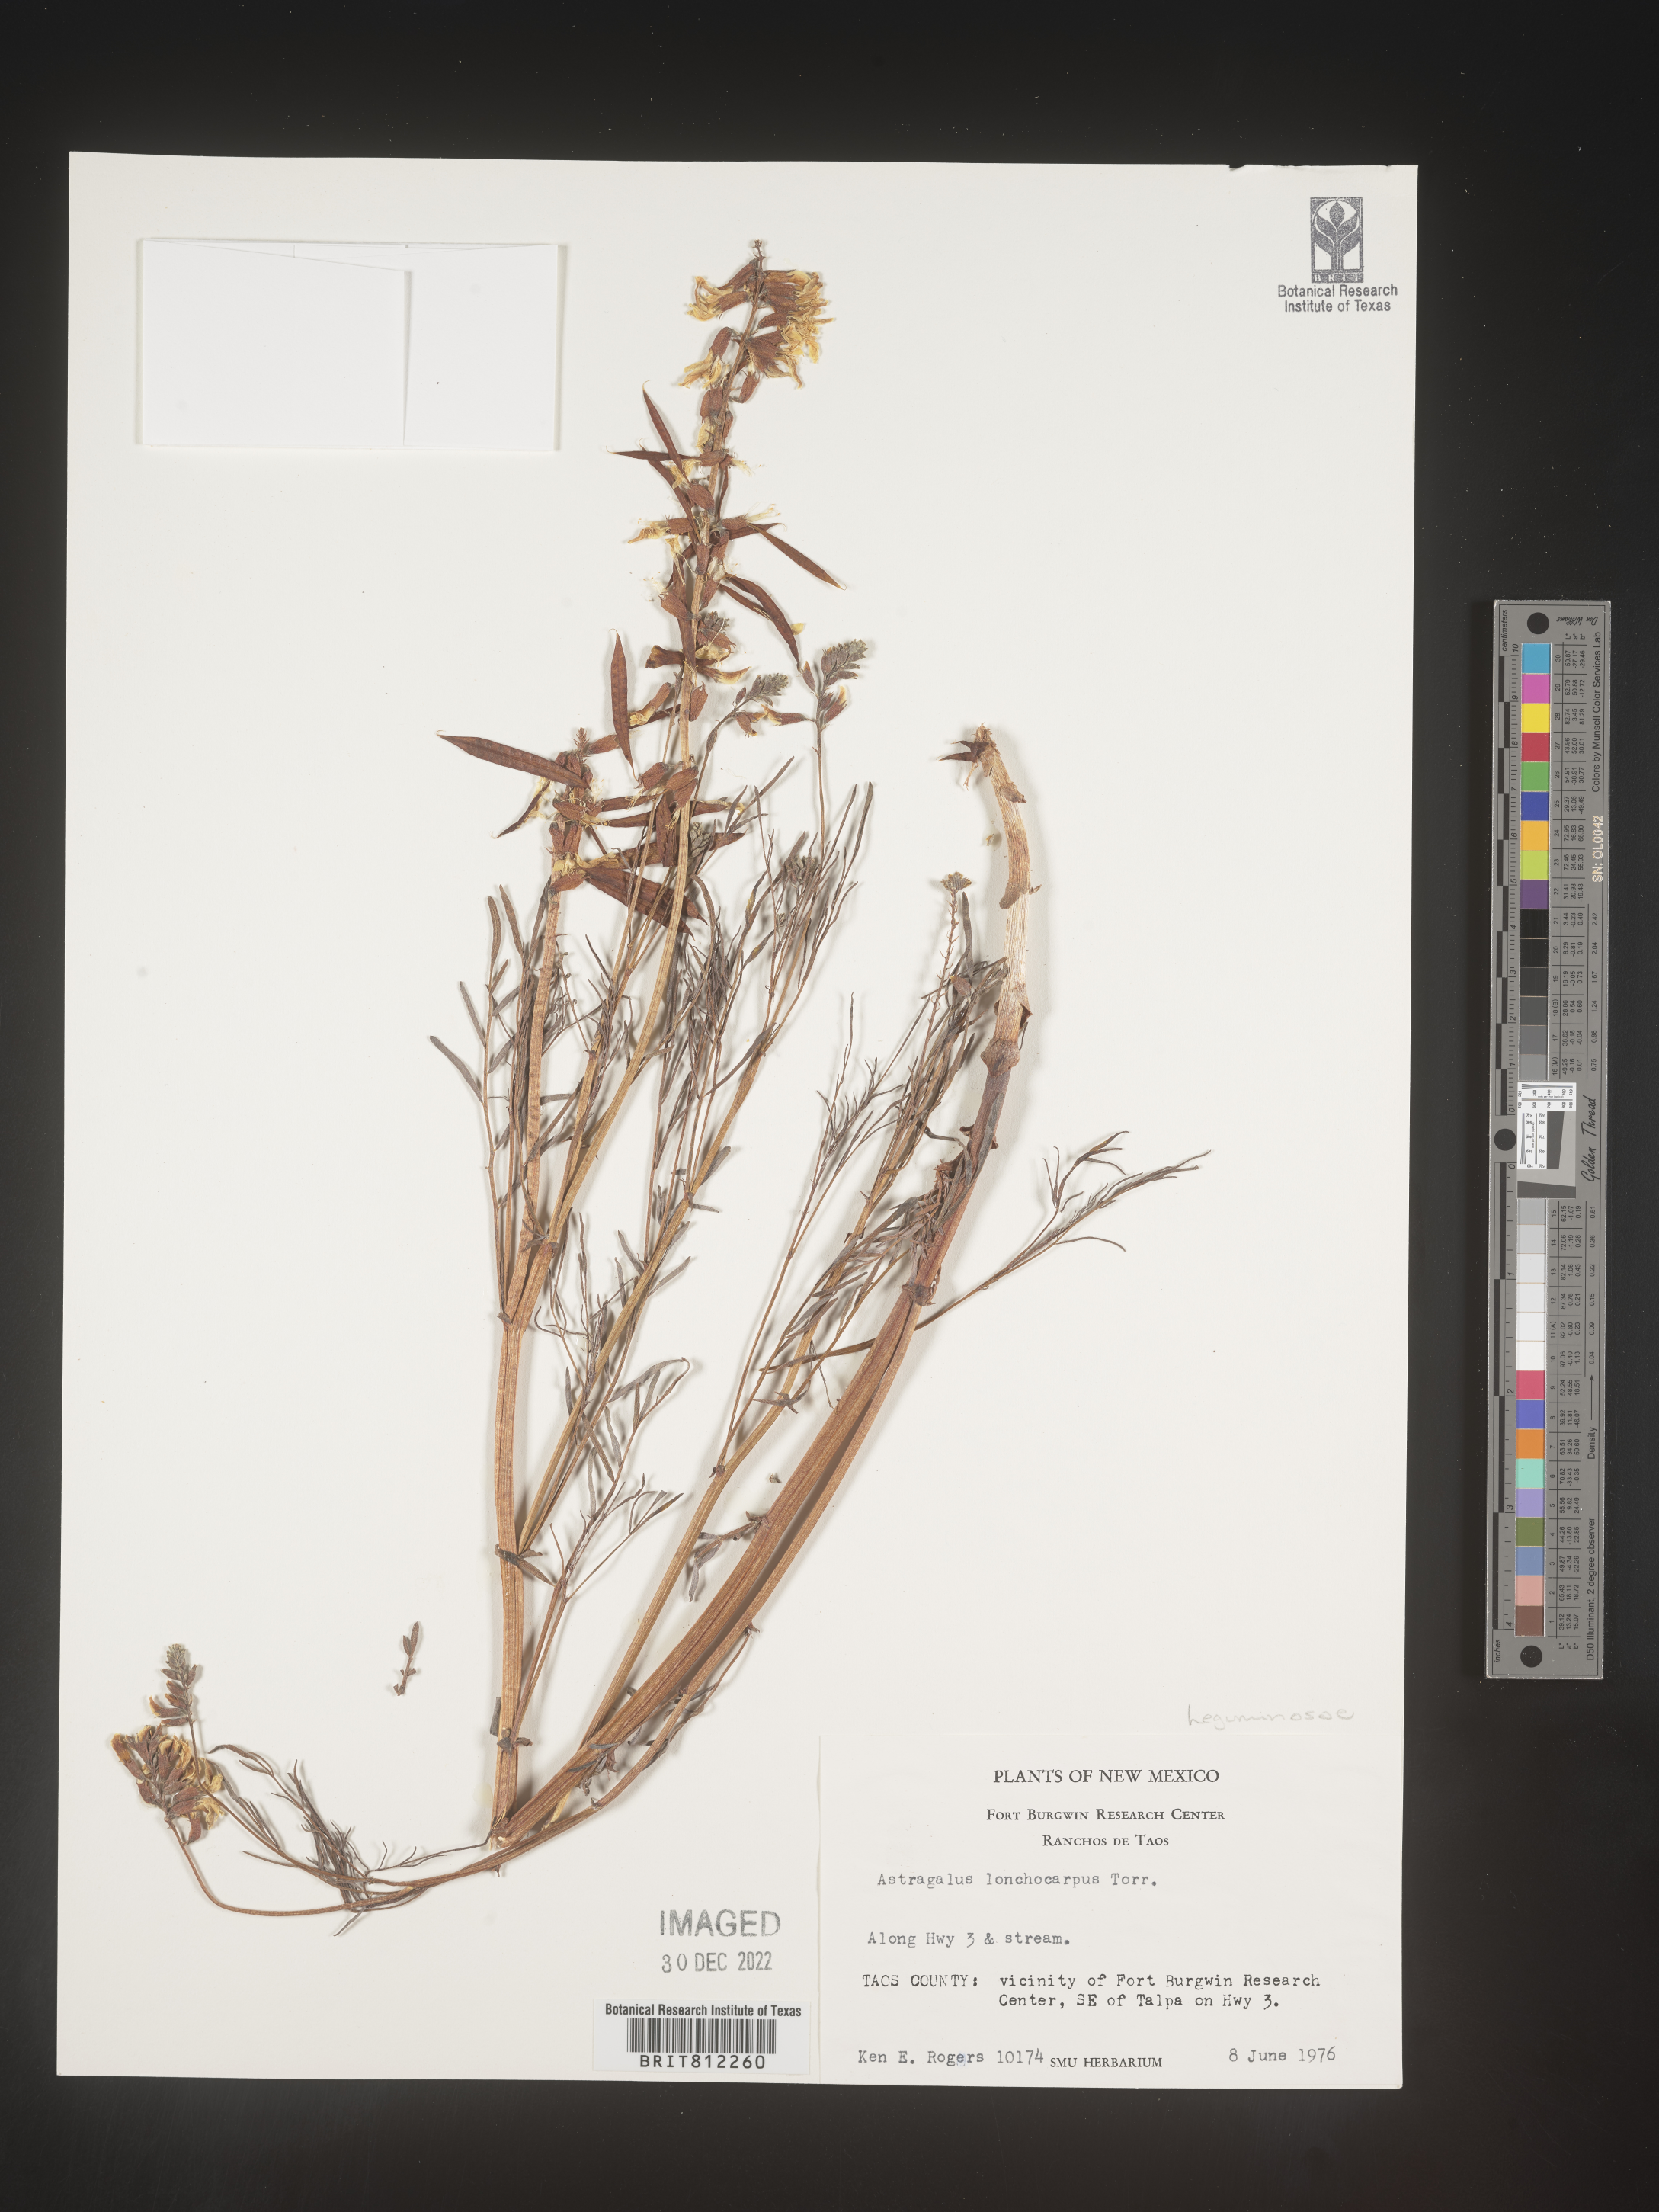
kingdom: Plantae
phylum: Tracheophyta
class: Magnoliopsida
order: Fabales
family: Fabaceae
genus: Astragalus
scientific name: Astragalus lonchocarpus
